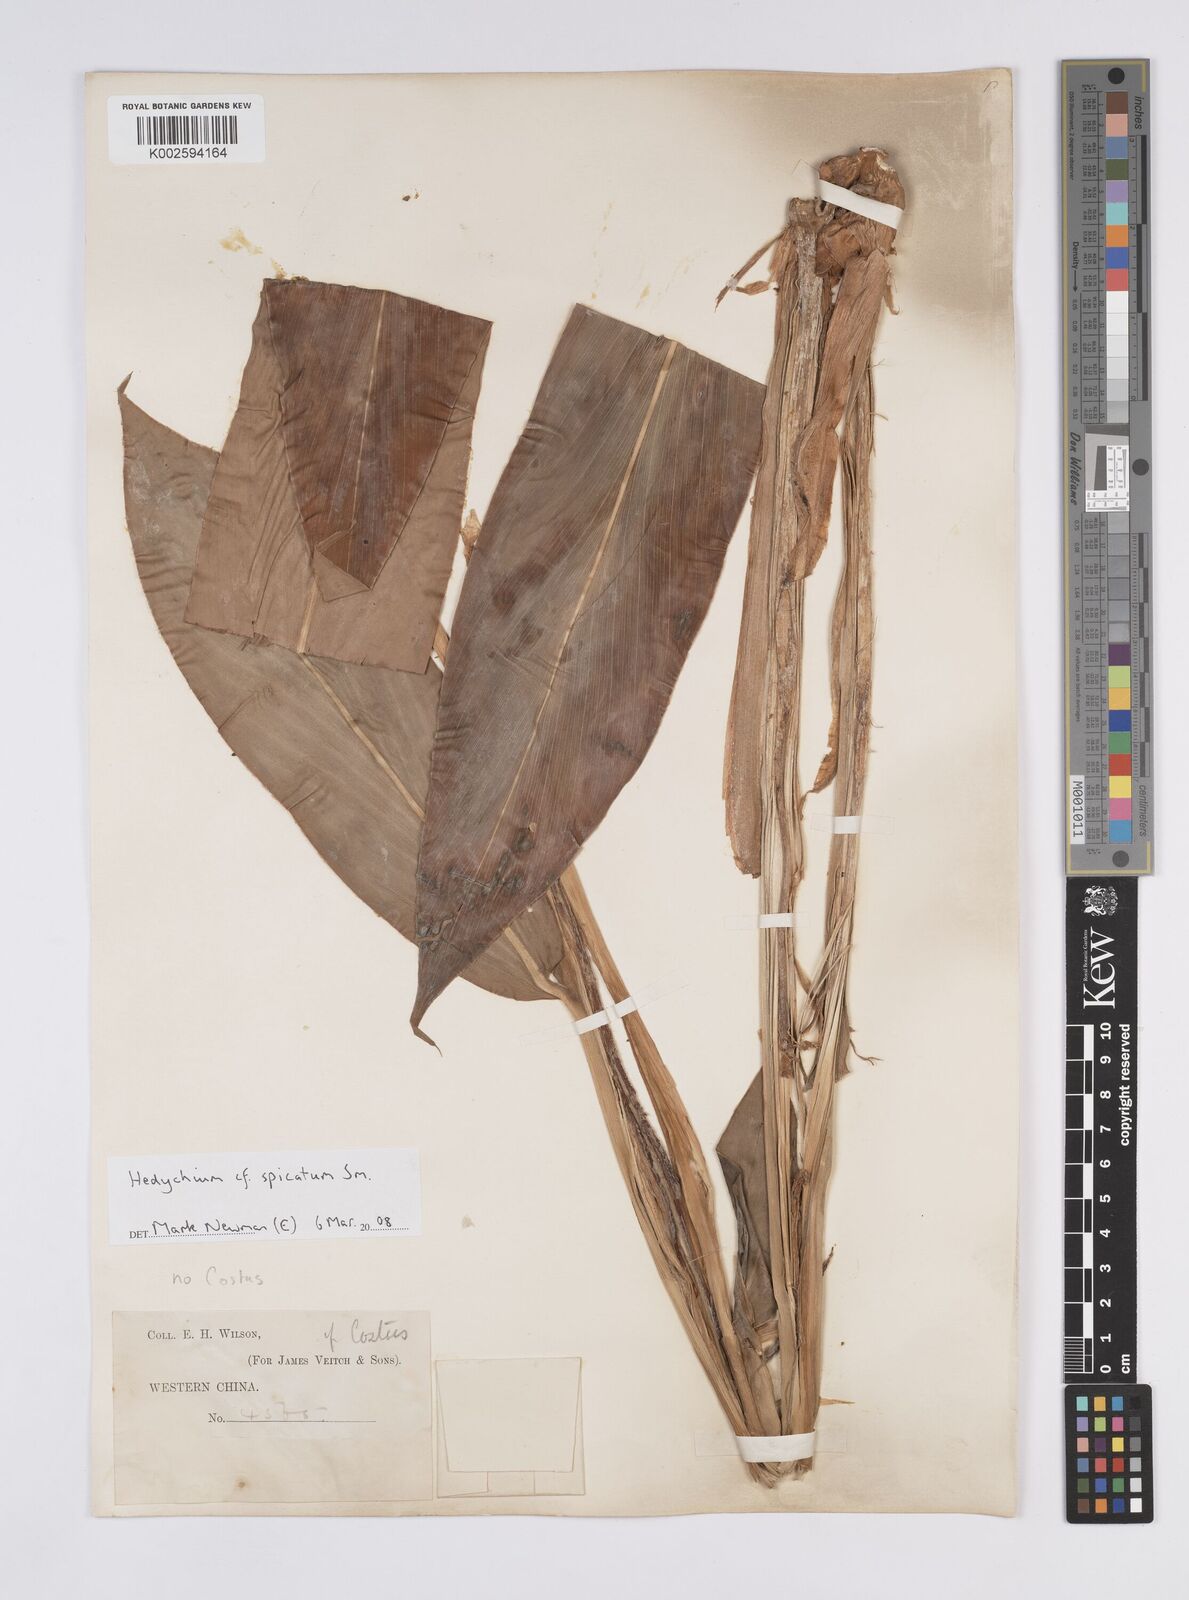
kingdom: Plantae
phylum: Tracheophyta
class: Liliopsida
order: Zingiberales
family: Zingiberaceae
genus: Hedychium
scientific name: Hedychium spicatum
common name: Spiked ginger-lily
